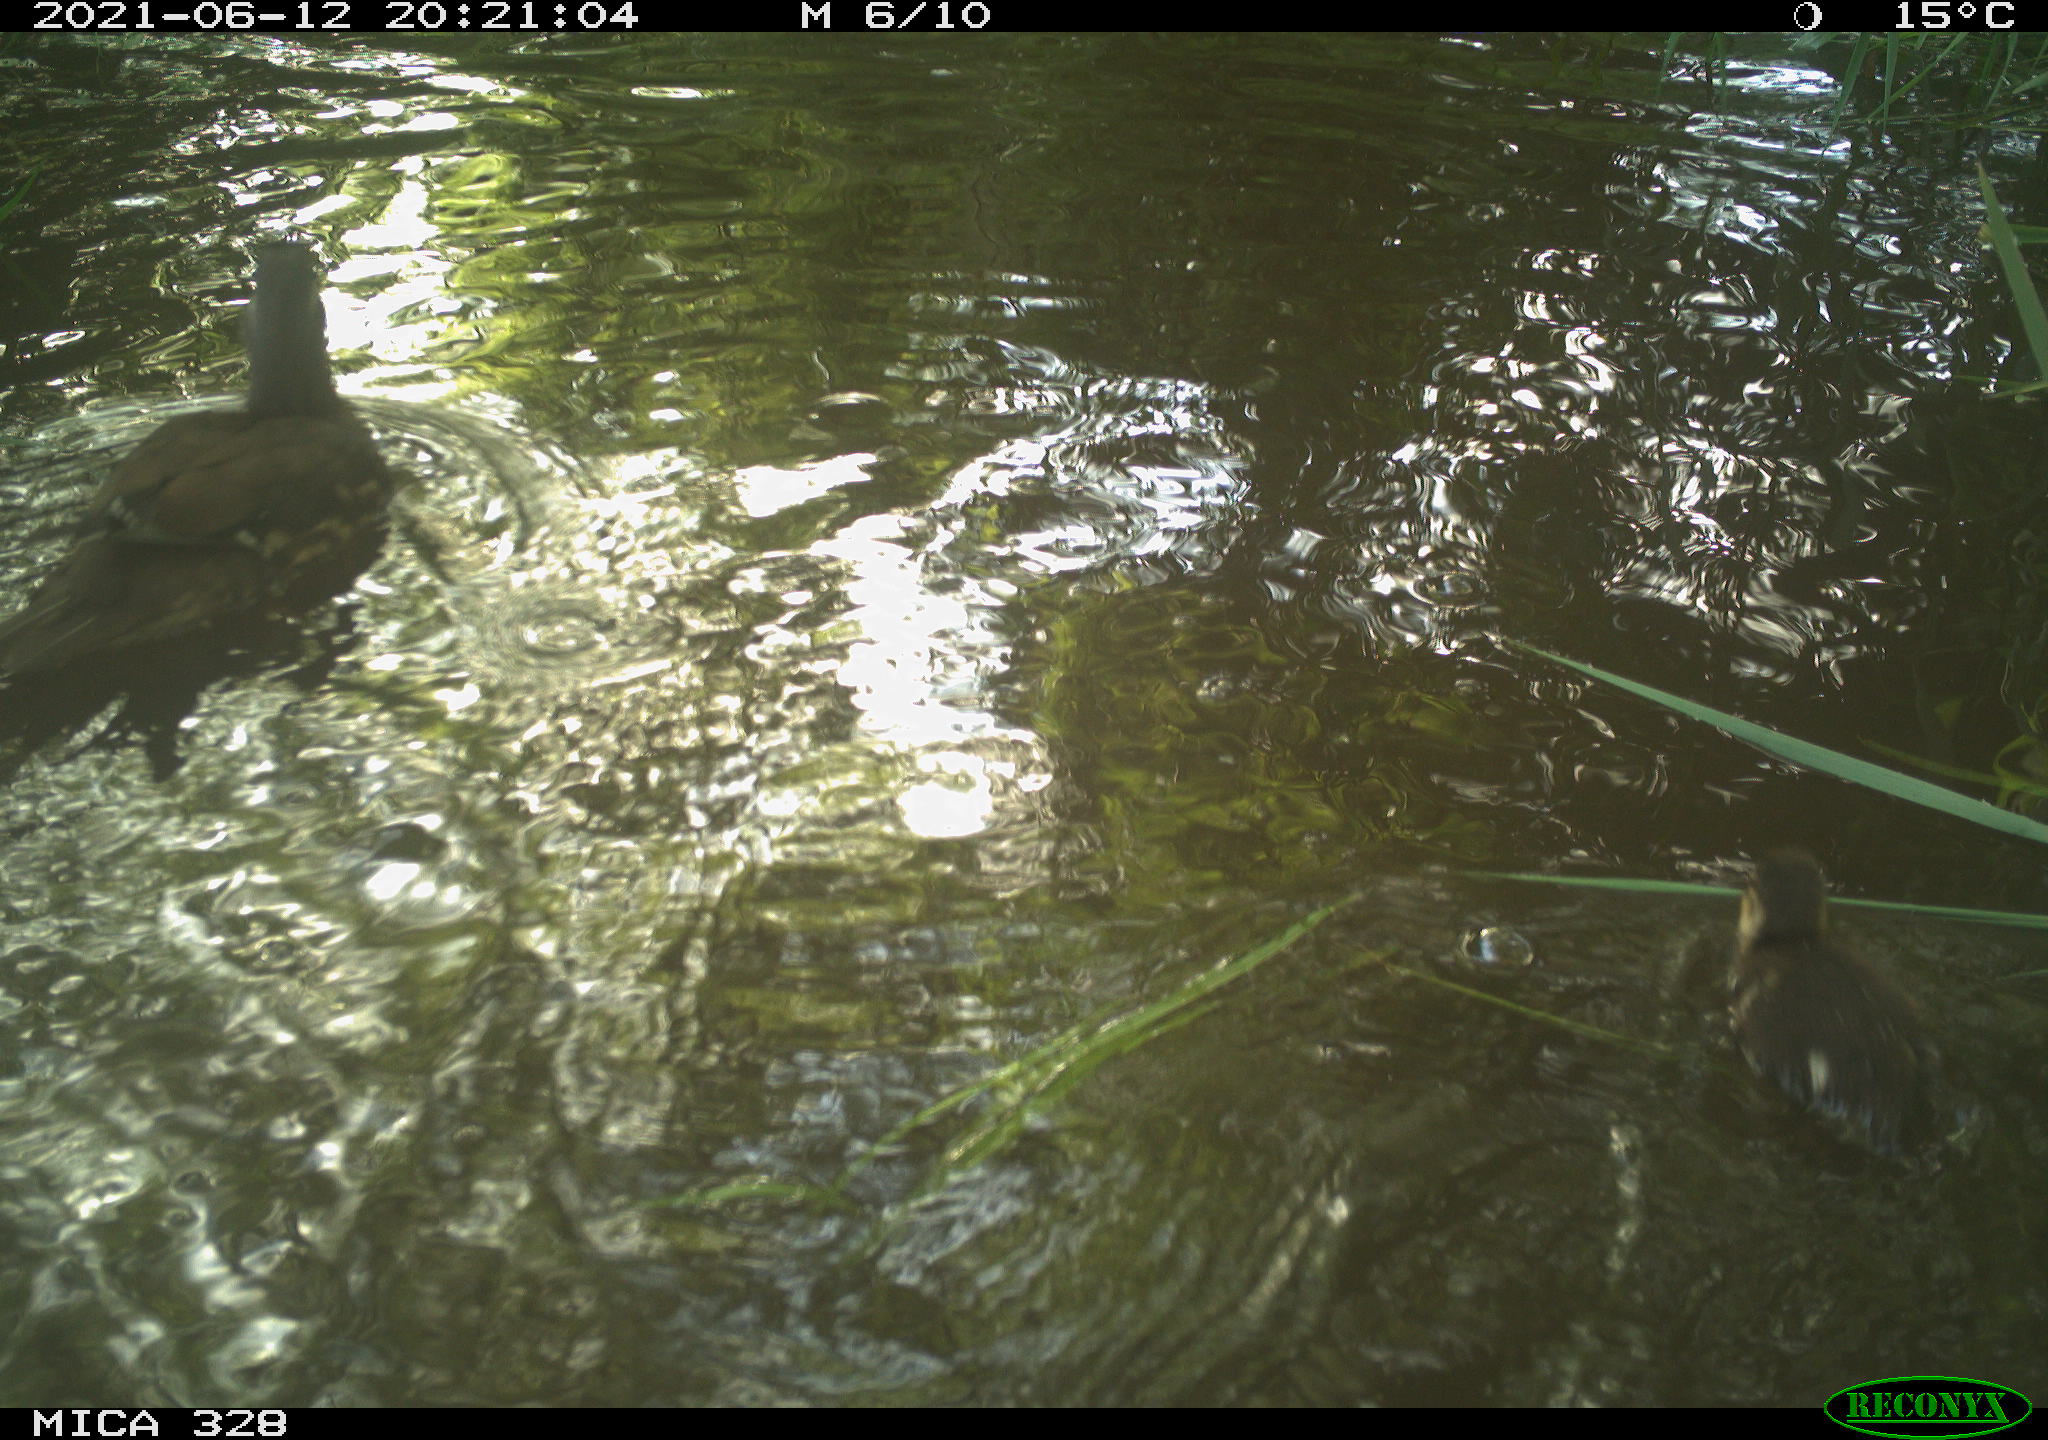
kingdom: Animalia
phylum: Chordata
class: Aves
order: Anseriformes
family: Anatidae
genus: Aix
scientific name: Aix galericulata
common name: Mandarin duck
